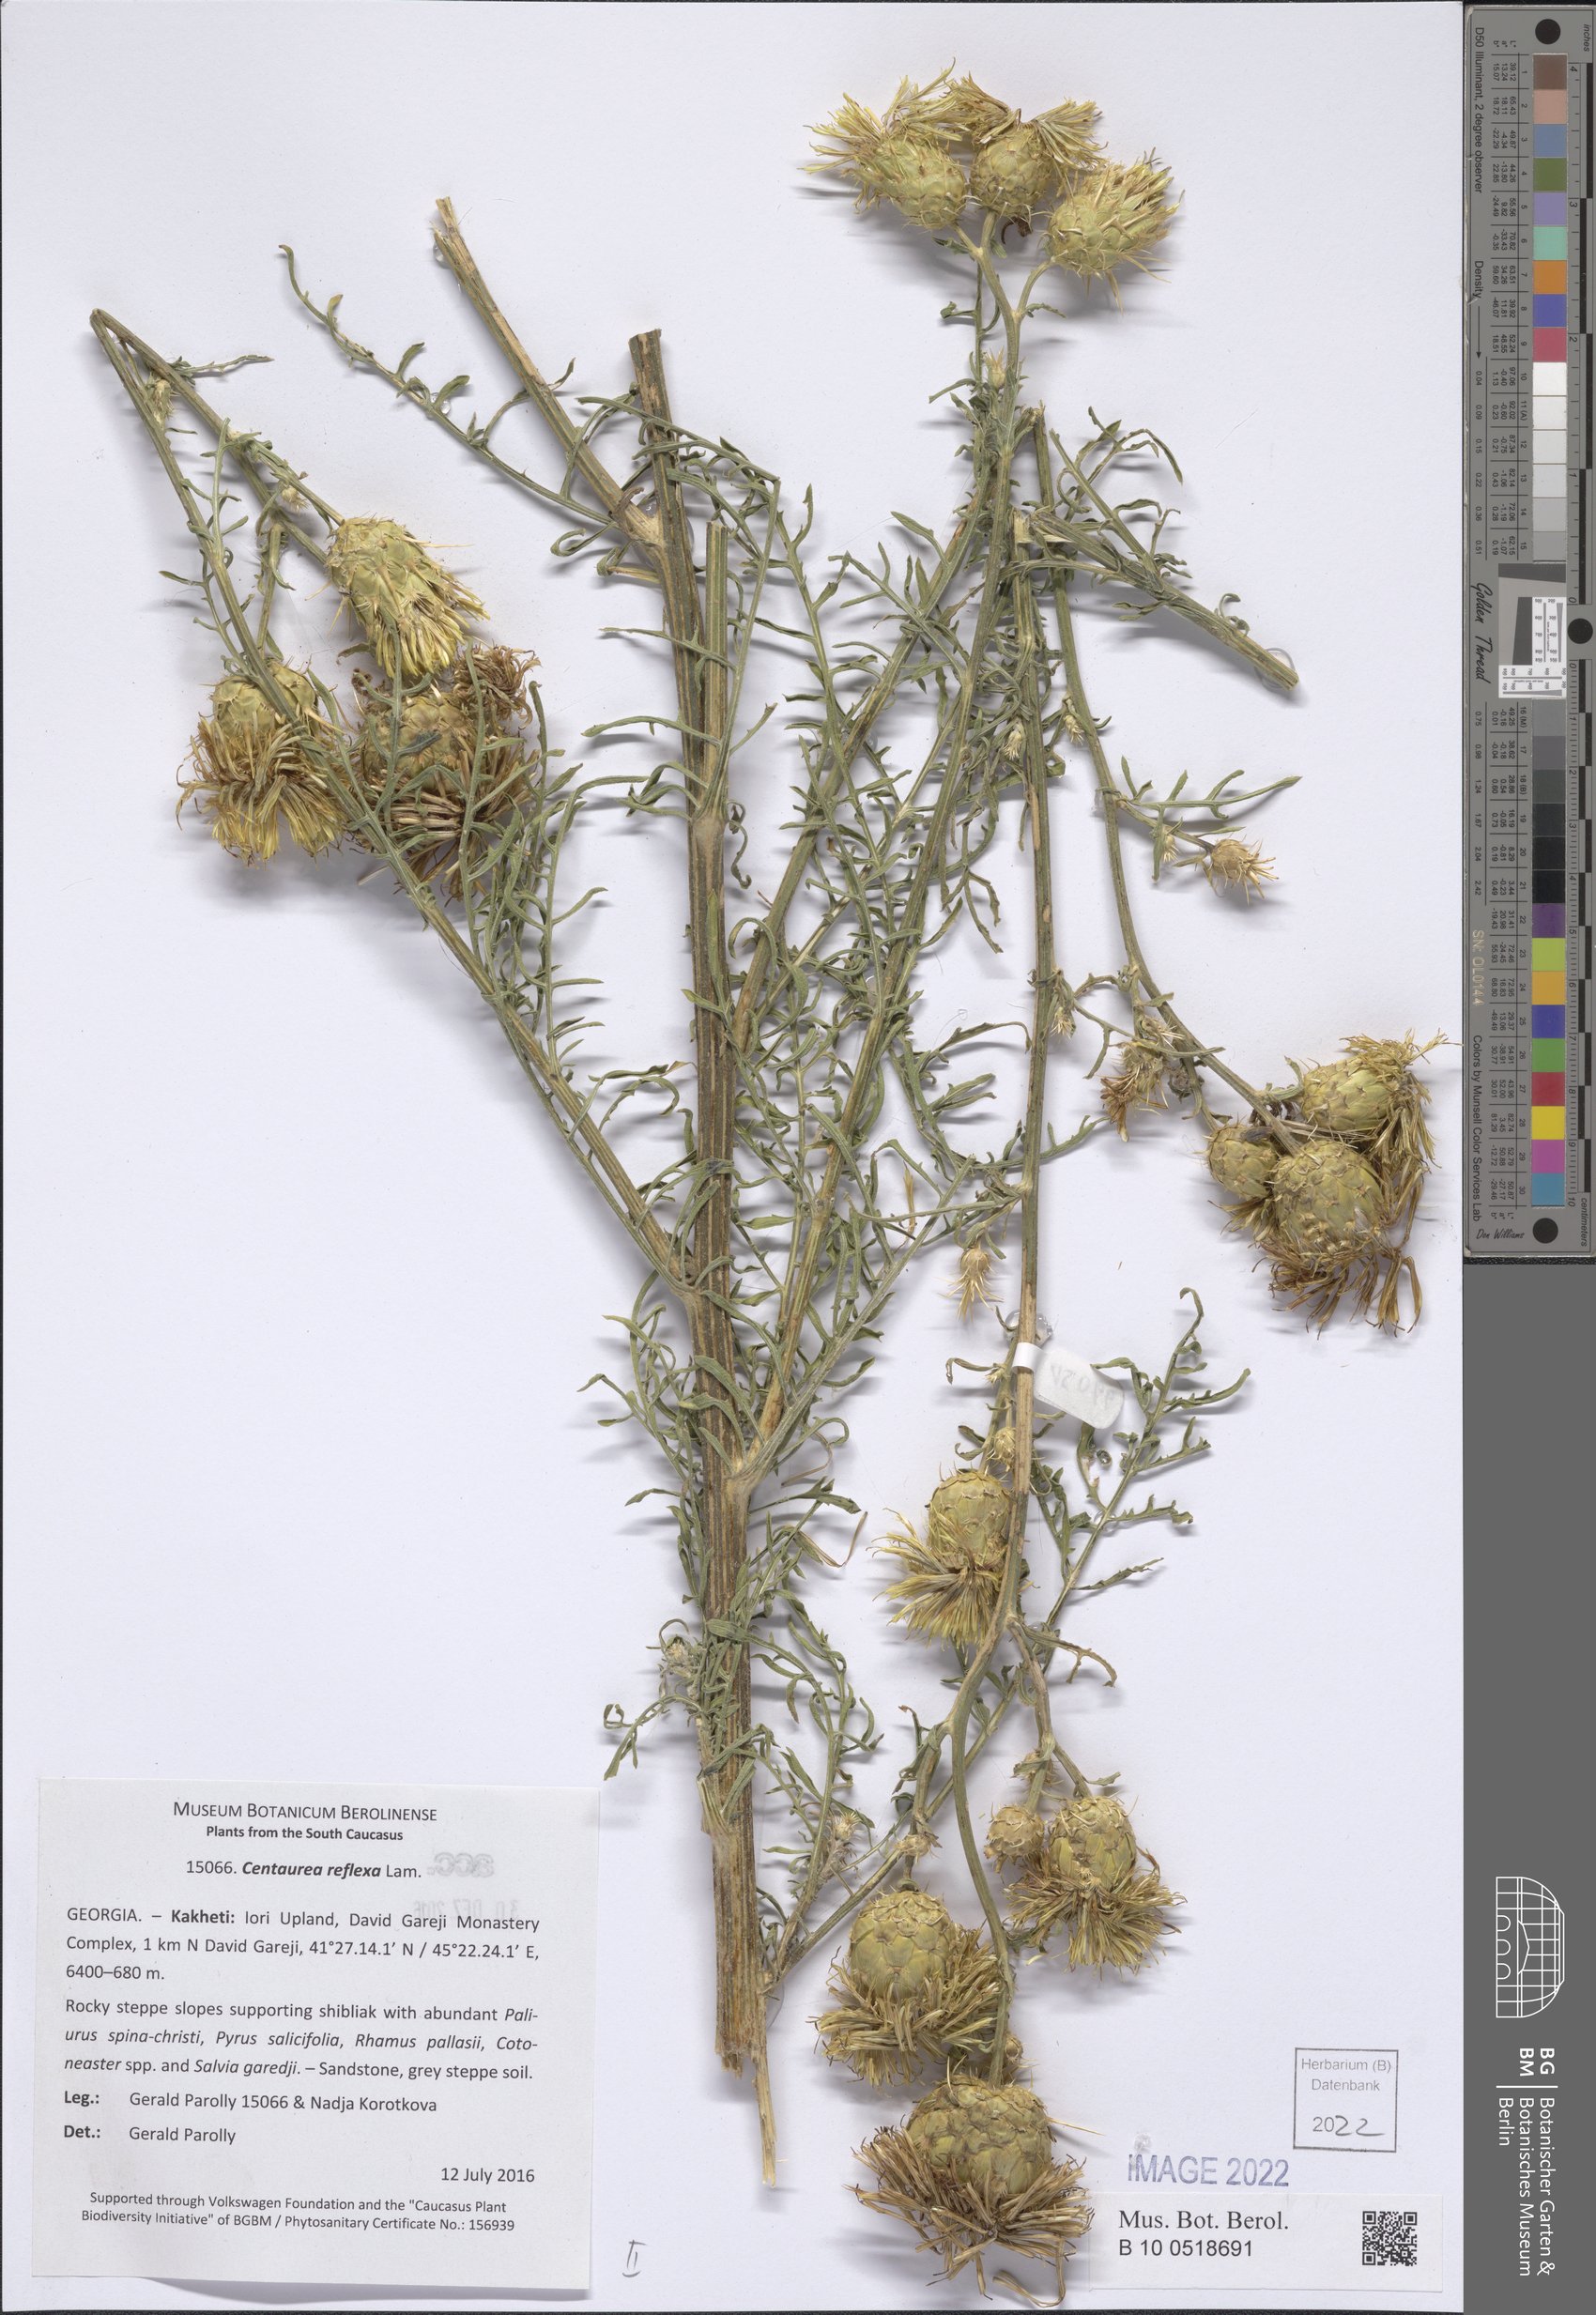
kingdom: Plantae
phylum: Tracheophyta
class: Magnoliopsida
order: Asterales
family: Asteraceae
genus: Centaurea
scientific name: Centaurea reflexa
